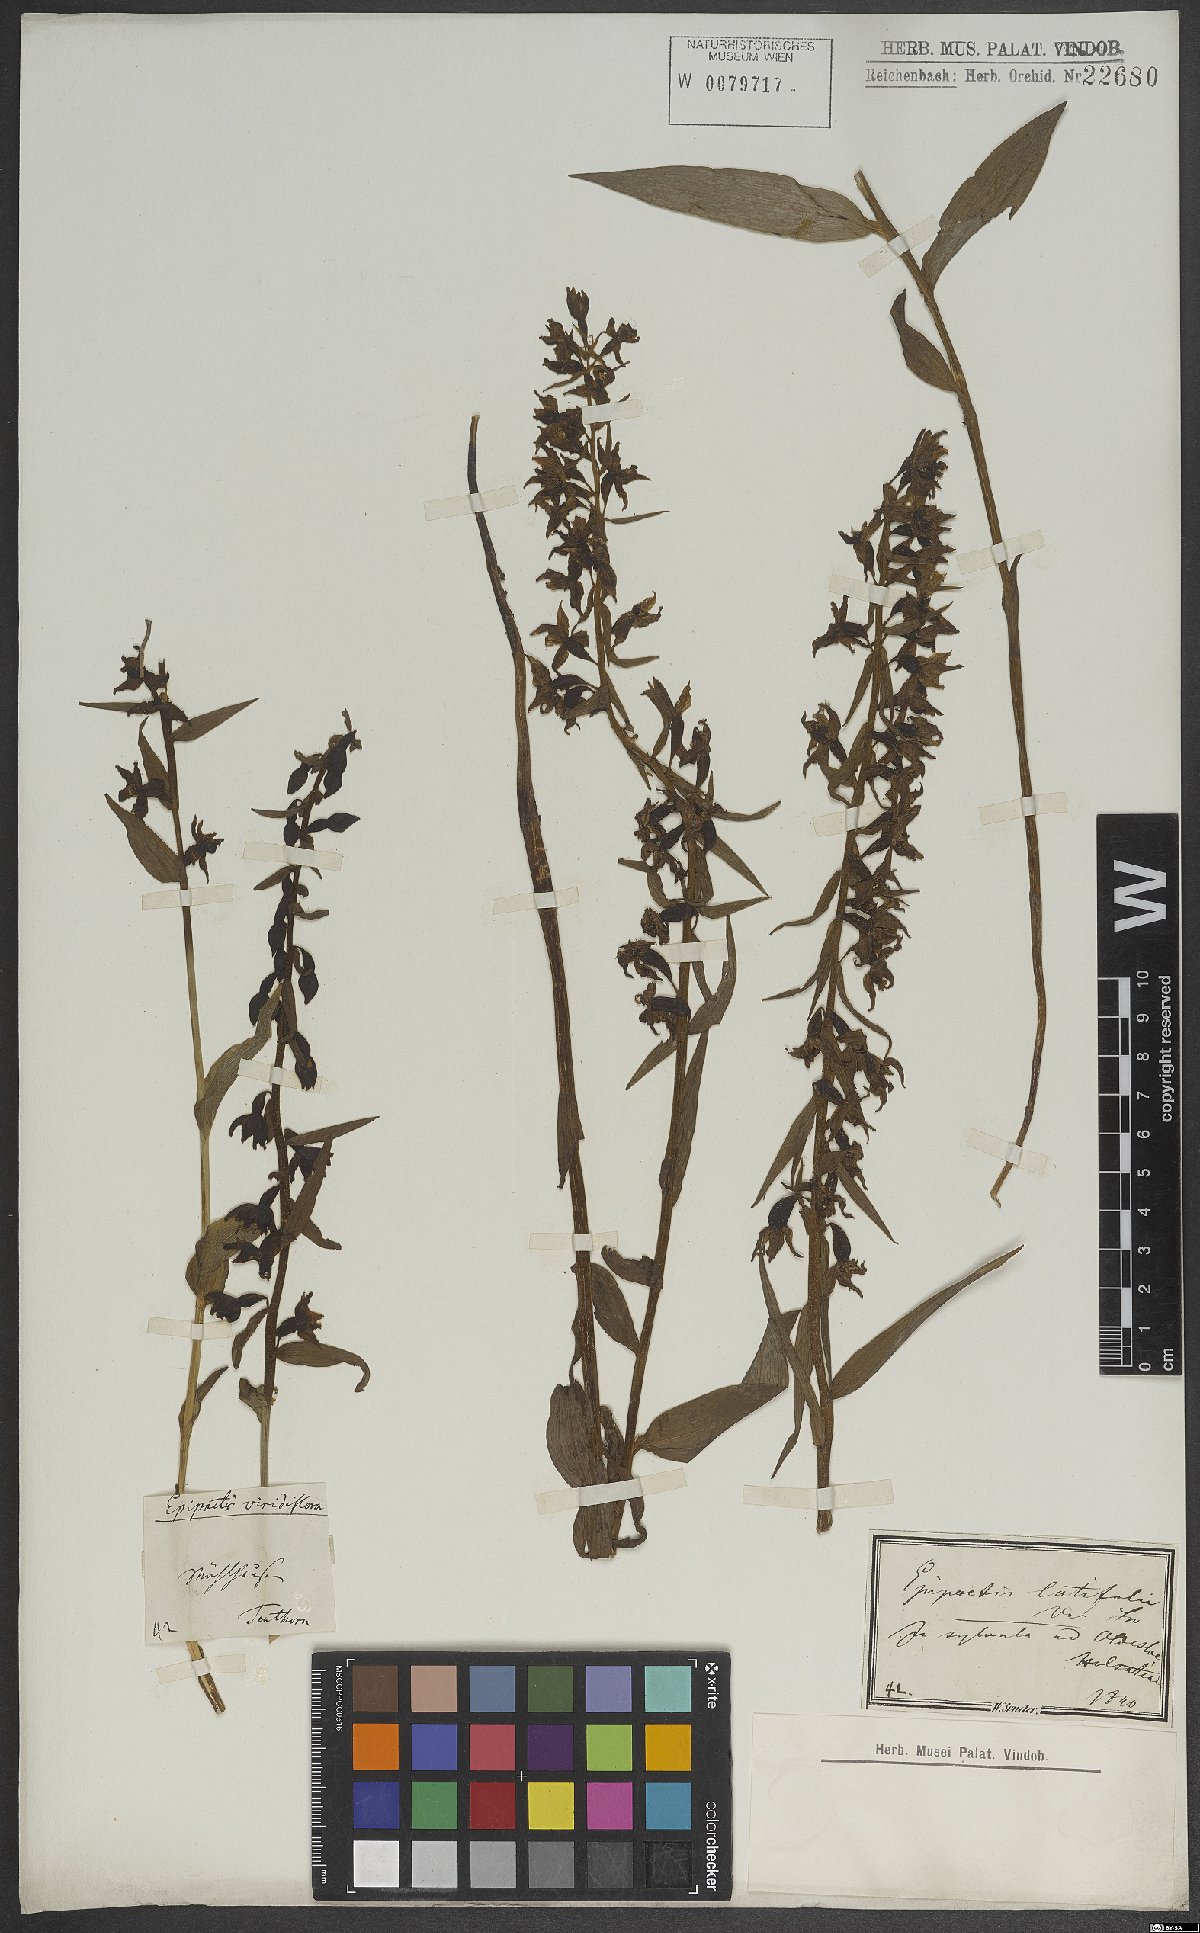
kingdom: Plantae
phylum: Tracheophyta
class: Liliopsida
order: Asparagales
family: Orchidaceae
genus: Epipactis
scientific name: Epipactis helleborine
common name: Broad-leaved helleborine
